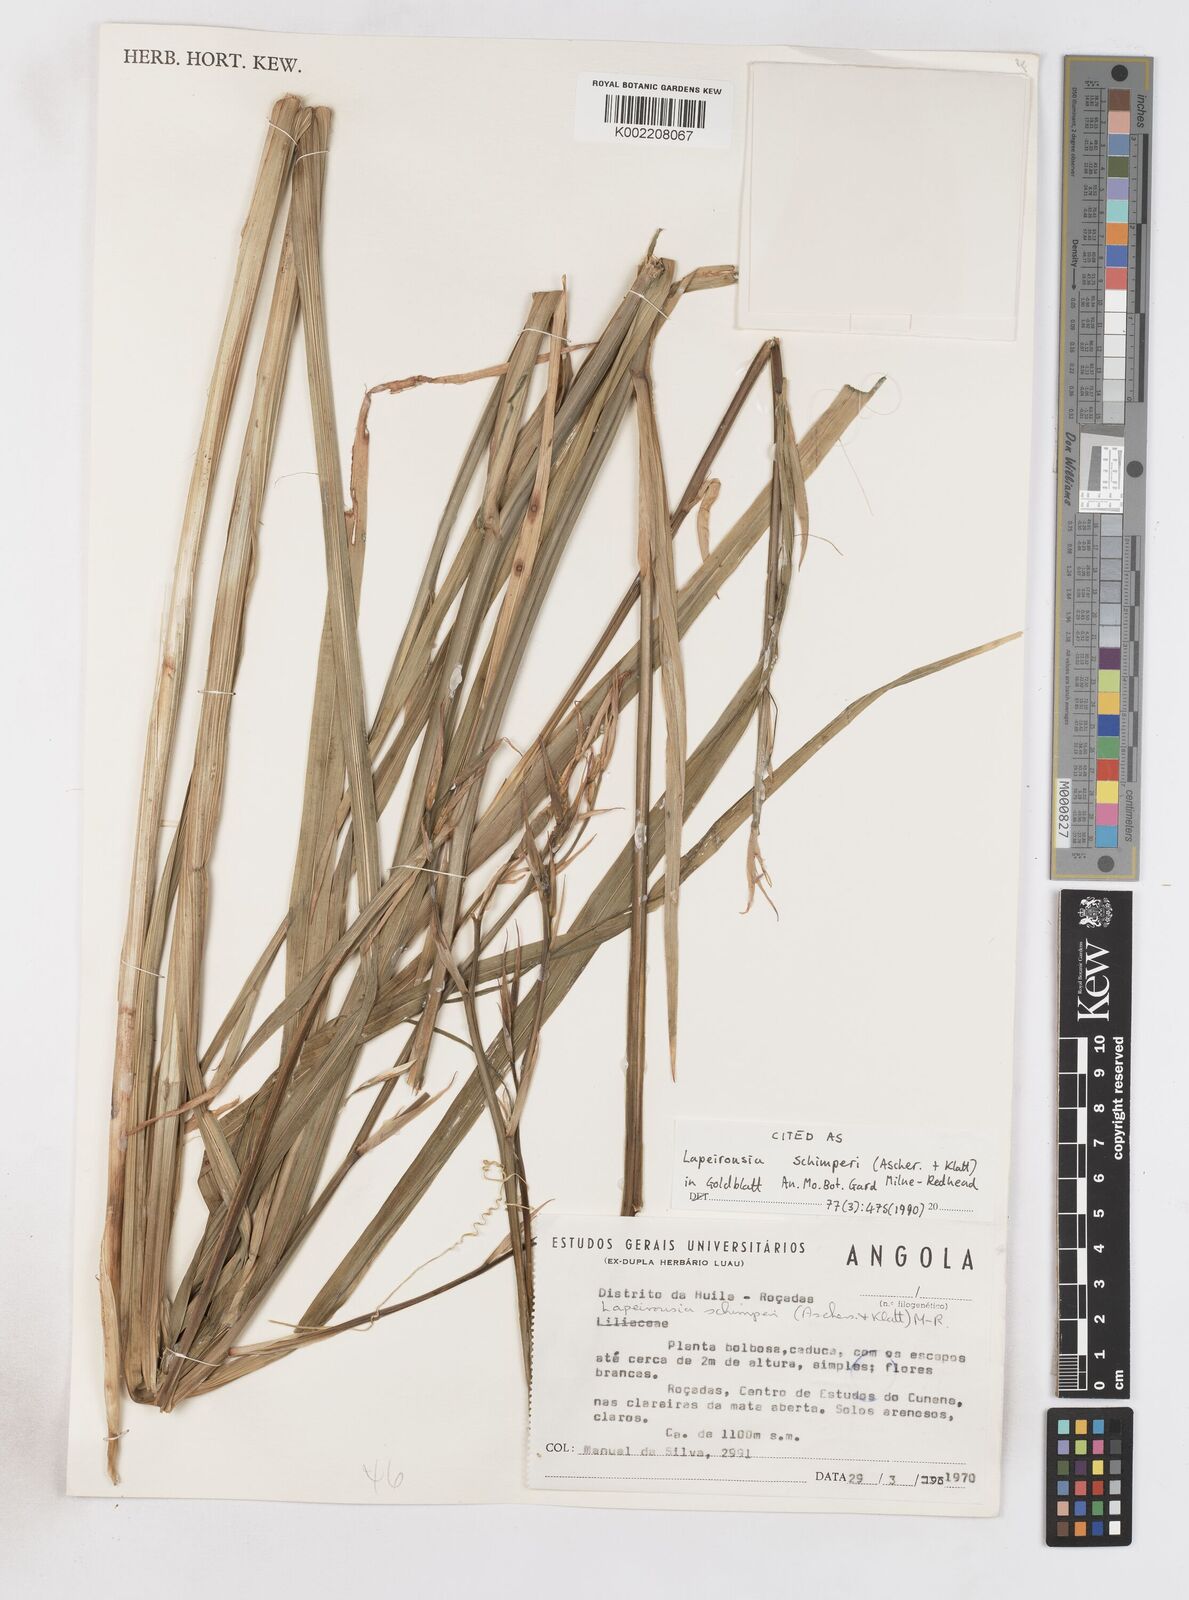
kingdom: Plantae
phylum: Tracheophyta
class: Liliopsida
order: Asparagales
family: Iridaceae
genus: Afrosolen
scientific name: Afrosolen schimperi
